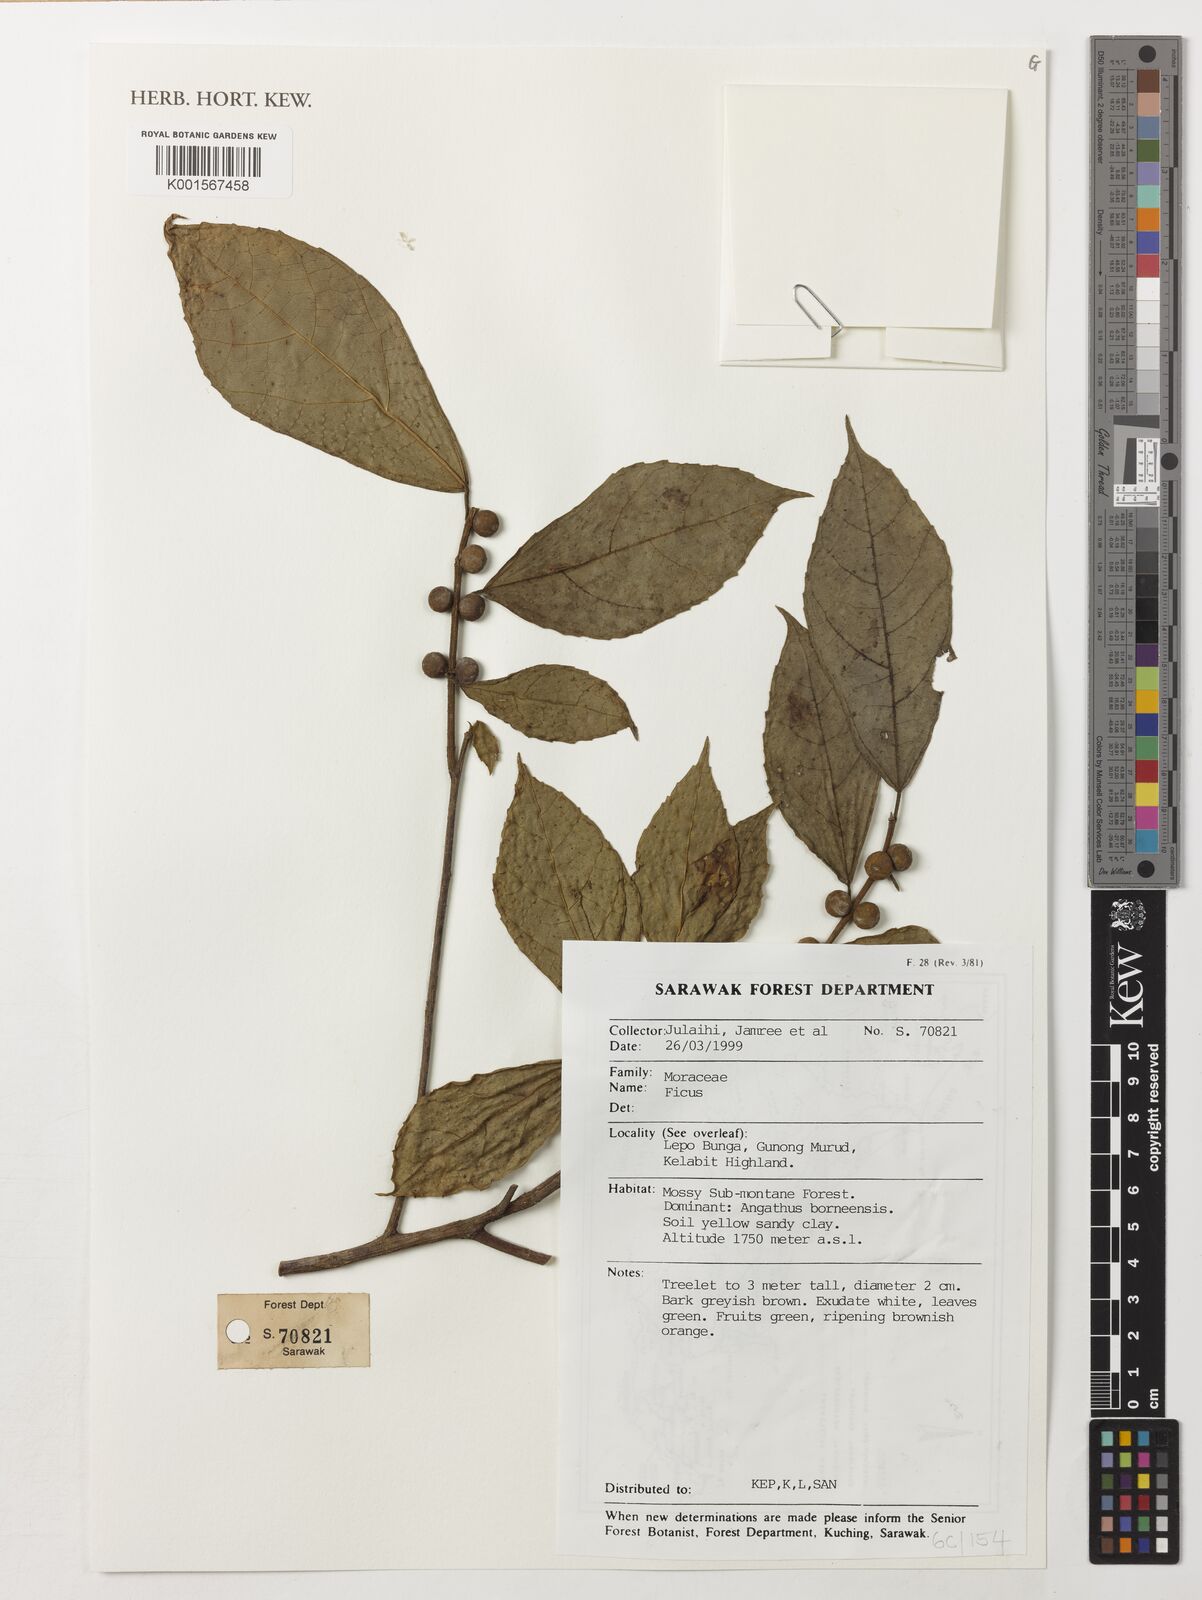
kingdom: Plantae
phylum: Tracheophyta
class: Magnoliopsida
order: Rosales
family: Moraceae
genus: Ficus
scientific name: Ficus
